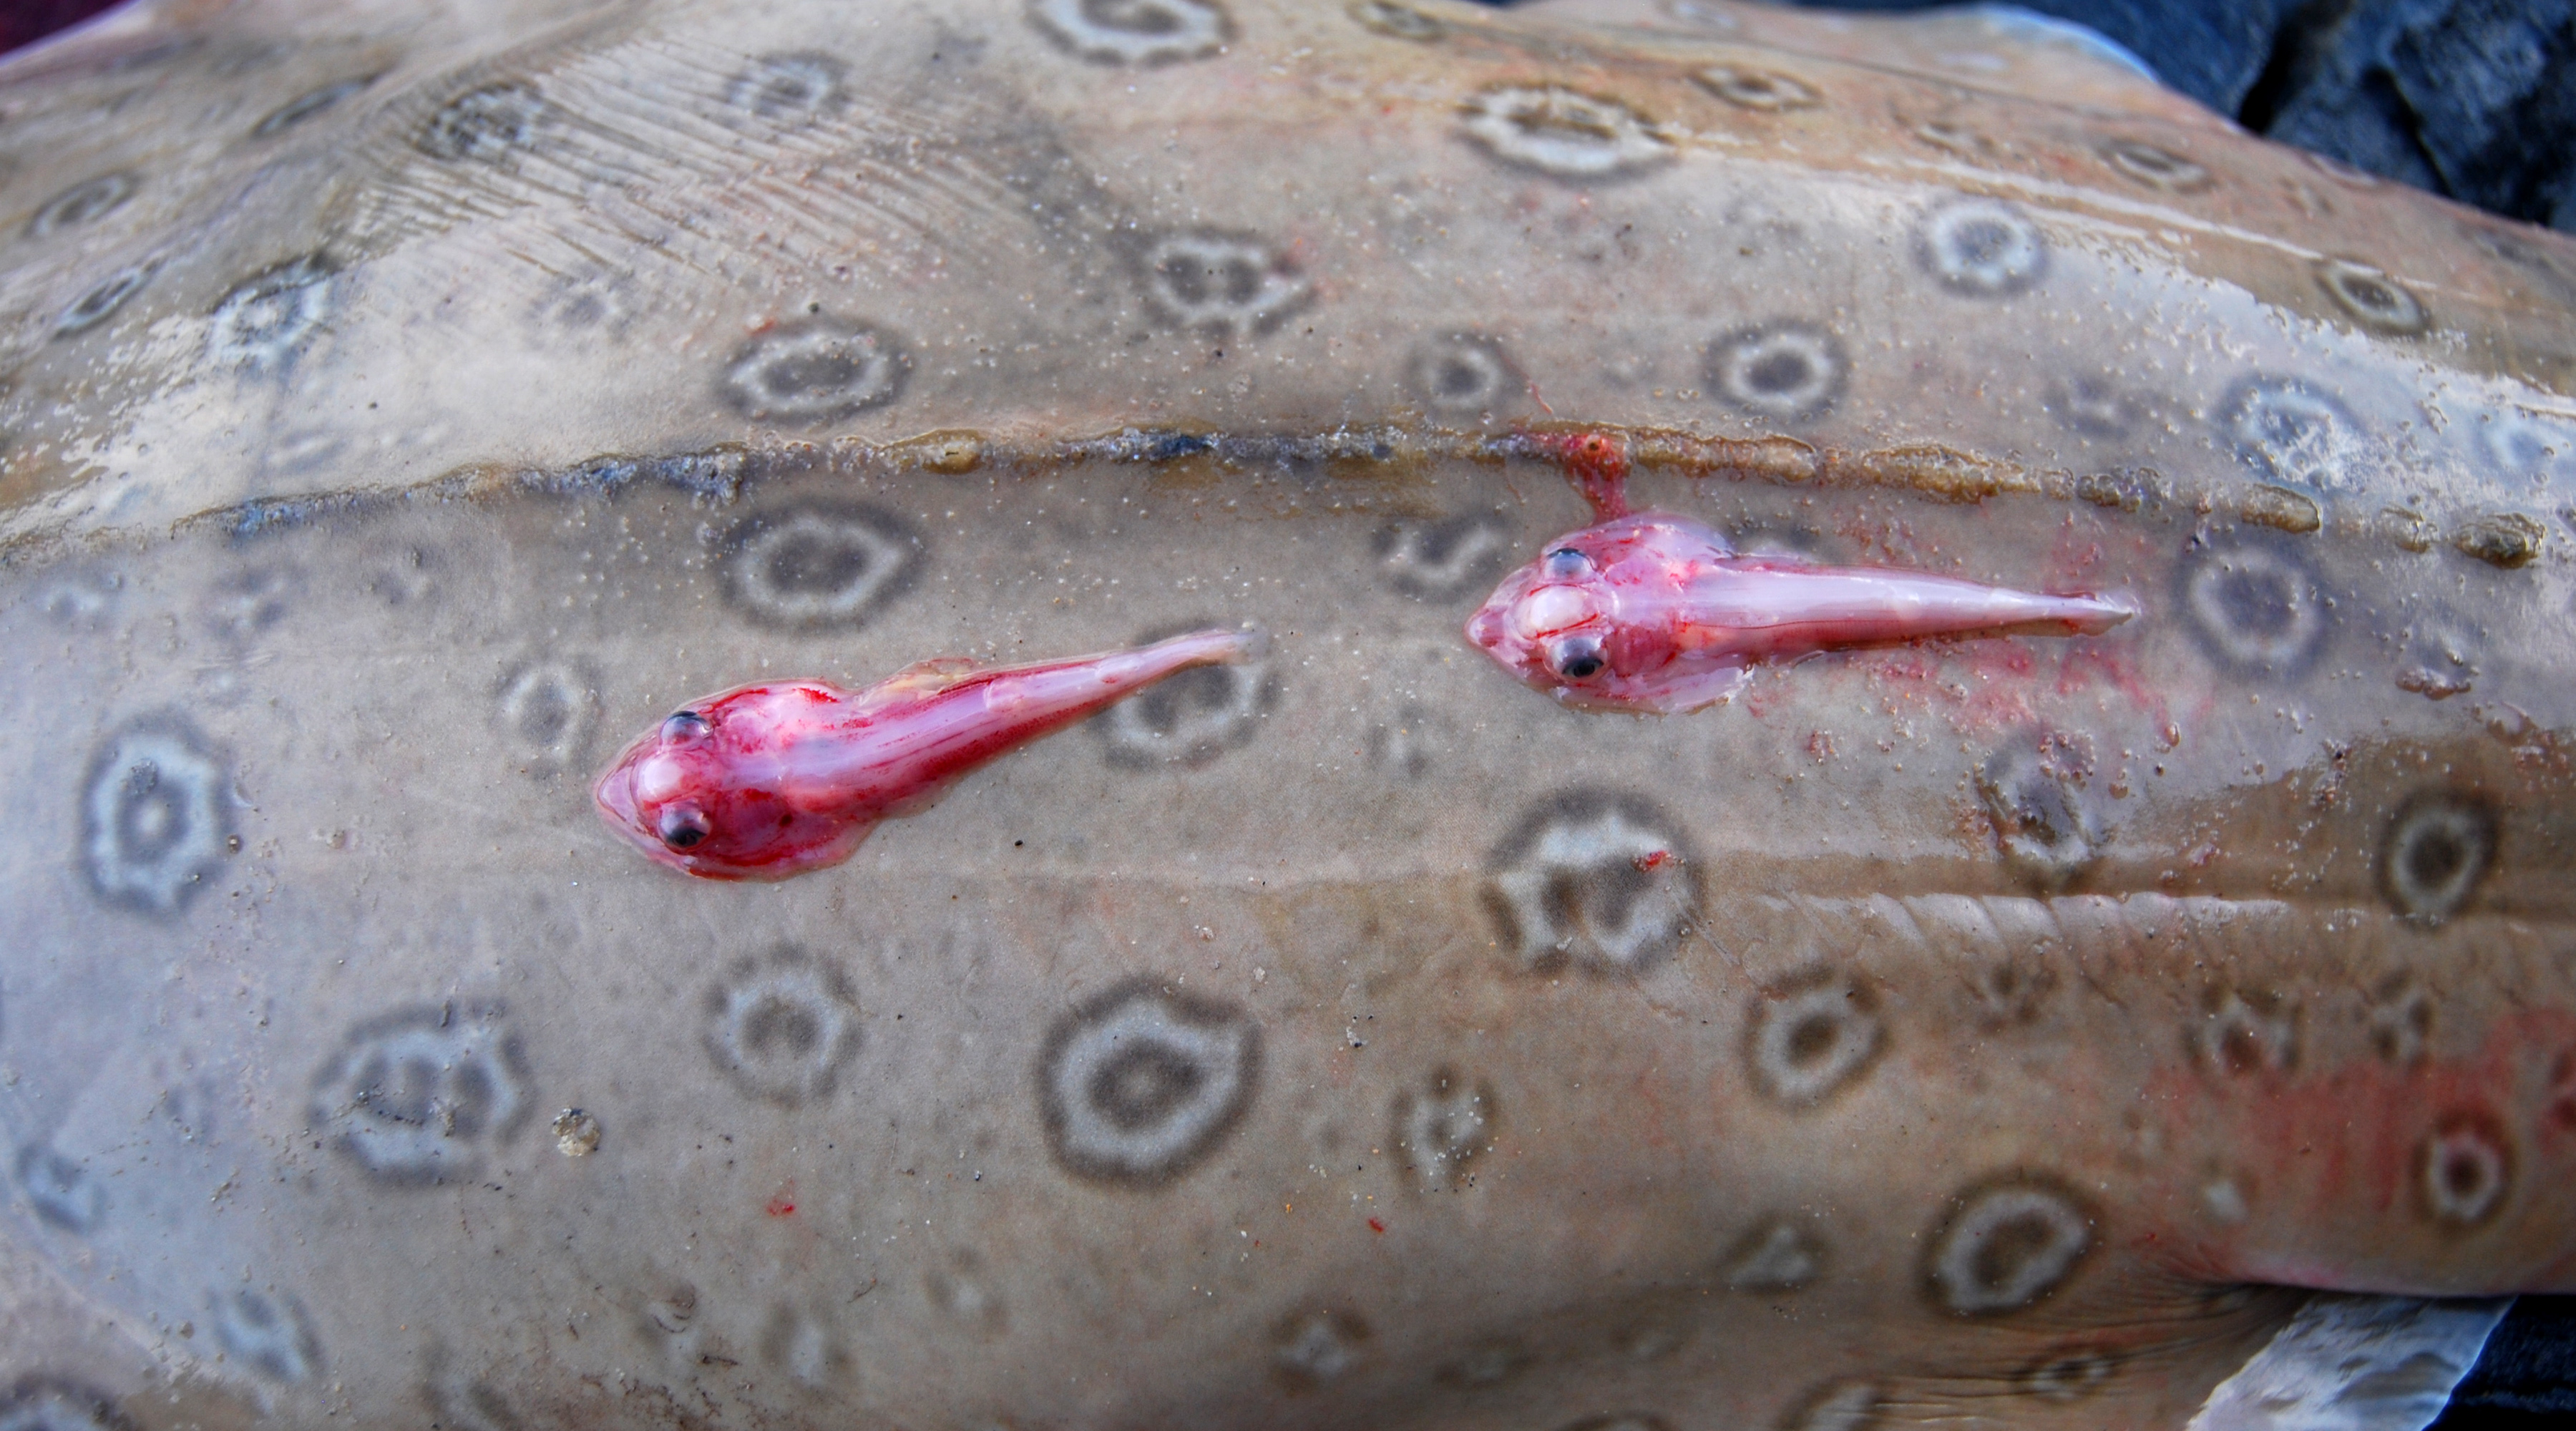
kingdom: Animalia
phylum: Chordata
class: Elasmobranchii
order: Rhinopristiformes
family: Rhinobatidae
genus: Acroteriobatus
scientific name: Acroteriobatus annulatus
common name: Lesser guitarfish
